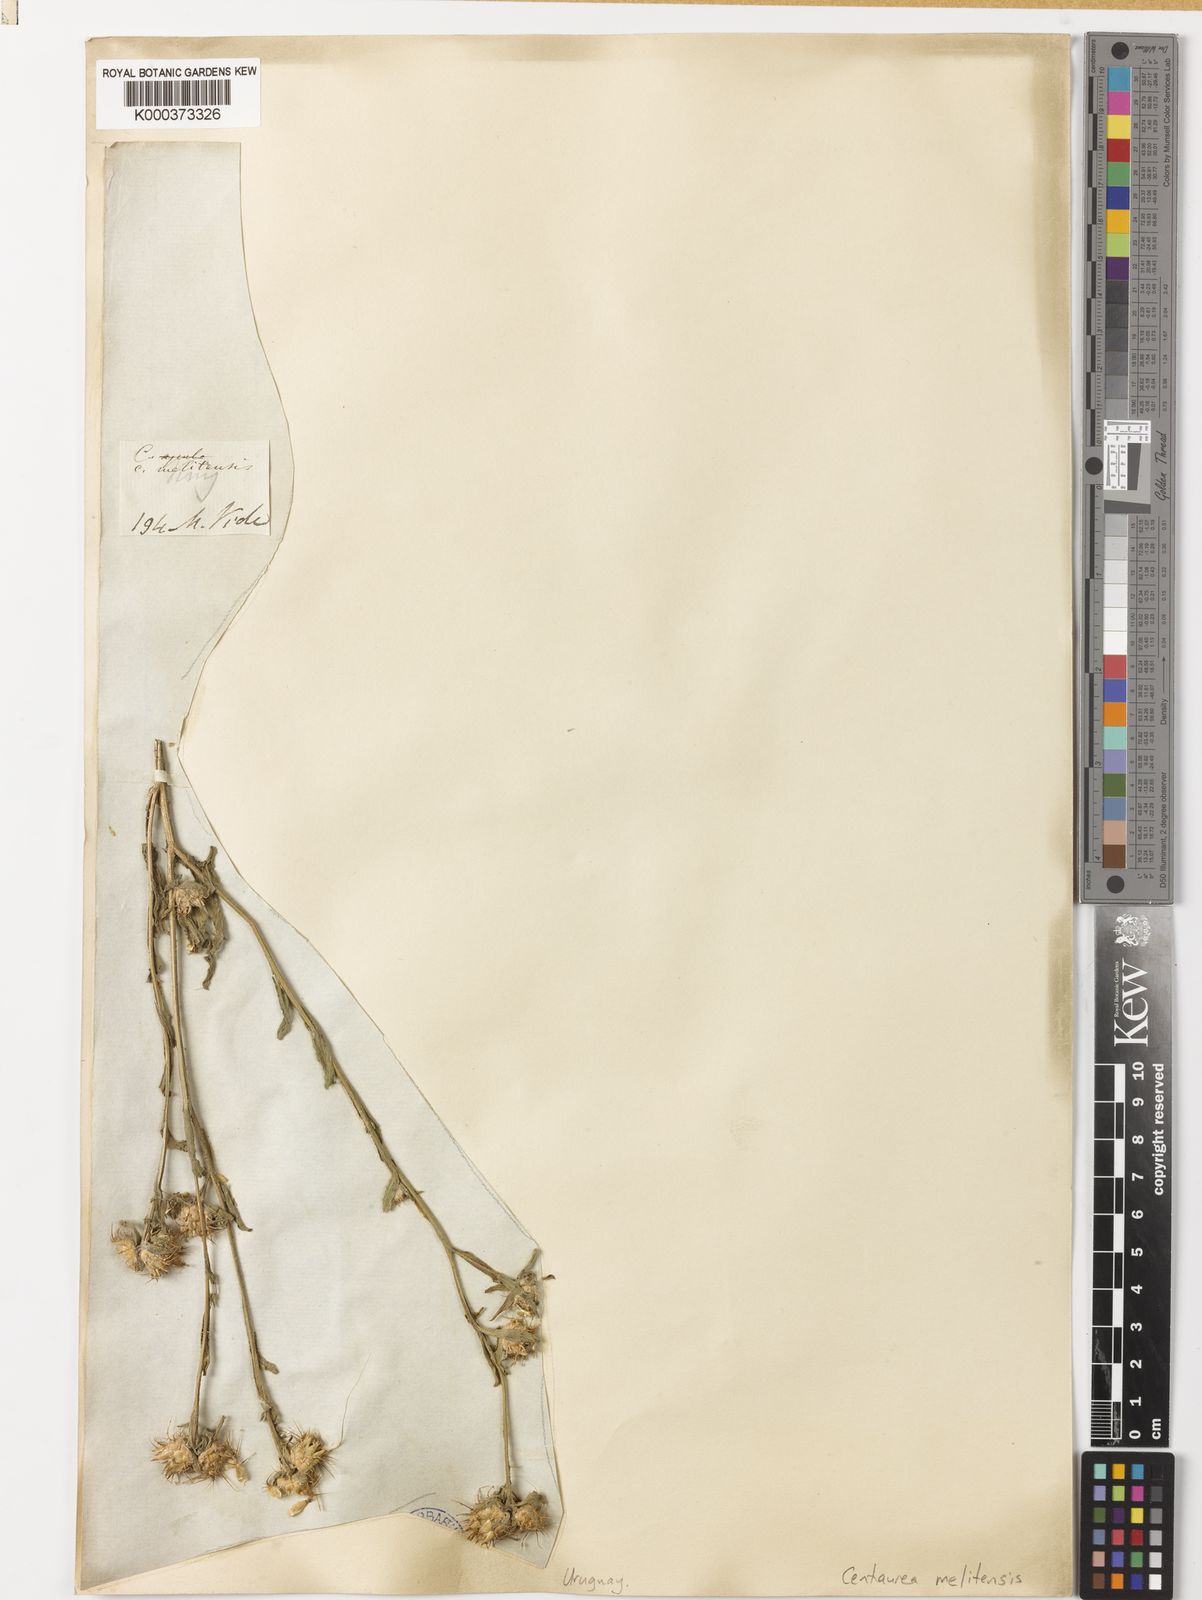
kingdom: Plantae
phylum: Tracheophyta
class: Magnoliopsida
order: Asterales
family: Asteraceae
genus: Centaurea
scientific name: Centaurea melitensis
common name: Maltese star-thistle
